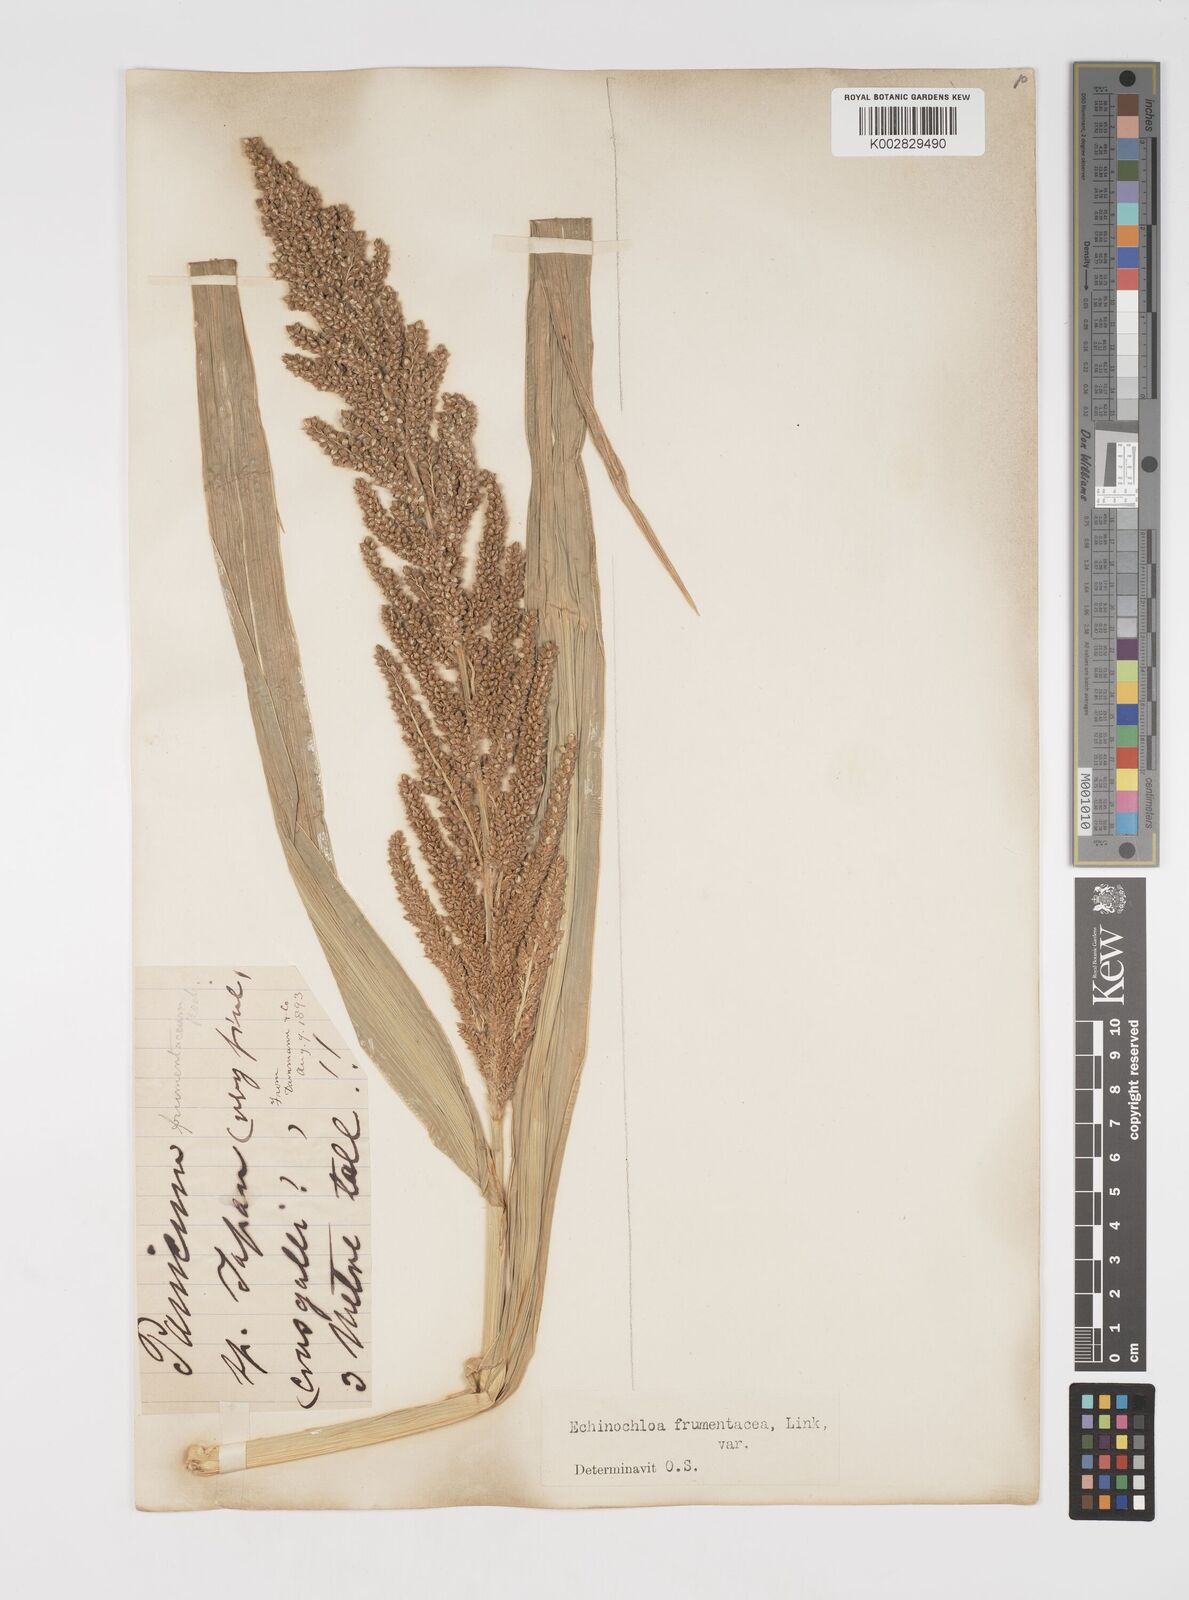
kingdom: Plantae
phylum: Tracheophyta
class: Liliopsida
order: Poales
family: Poaceae
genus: Echinochloa
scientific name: Echinochloa crus-galli
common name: Cockspur
